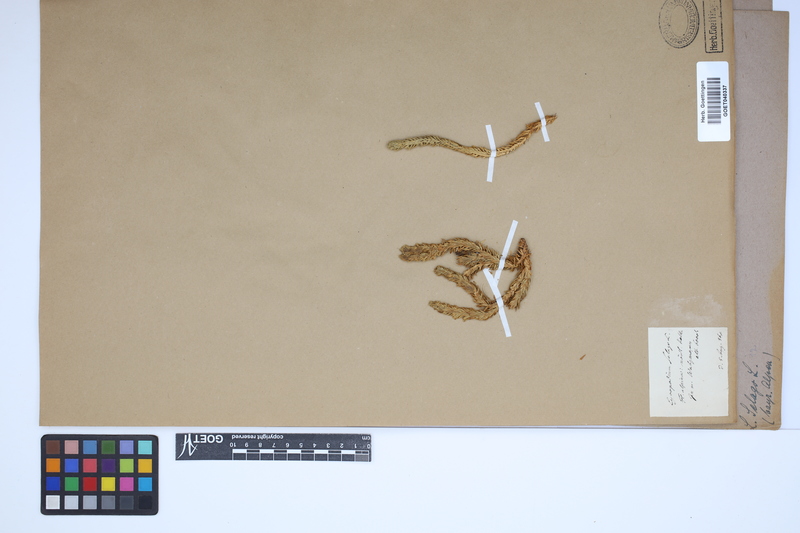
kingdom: Plantae
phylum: Tracheophyta
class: Lycopodiopsida
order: Lycopodiales
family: Lycopodiaceae
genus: Huperzia
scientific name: Huperzia selago
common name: Northern firmoss
